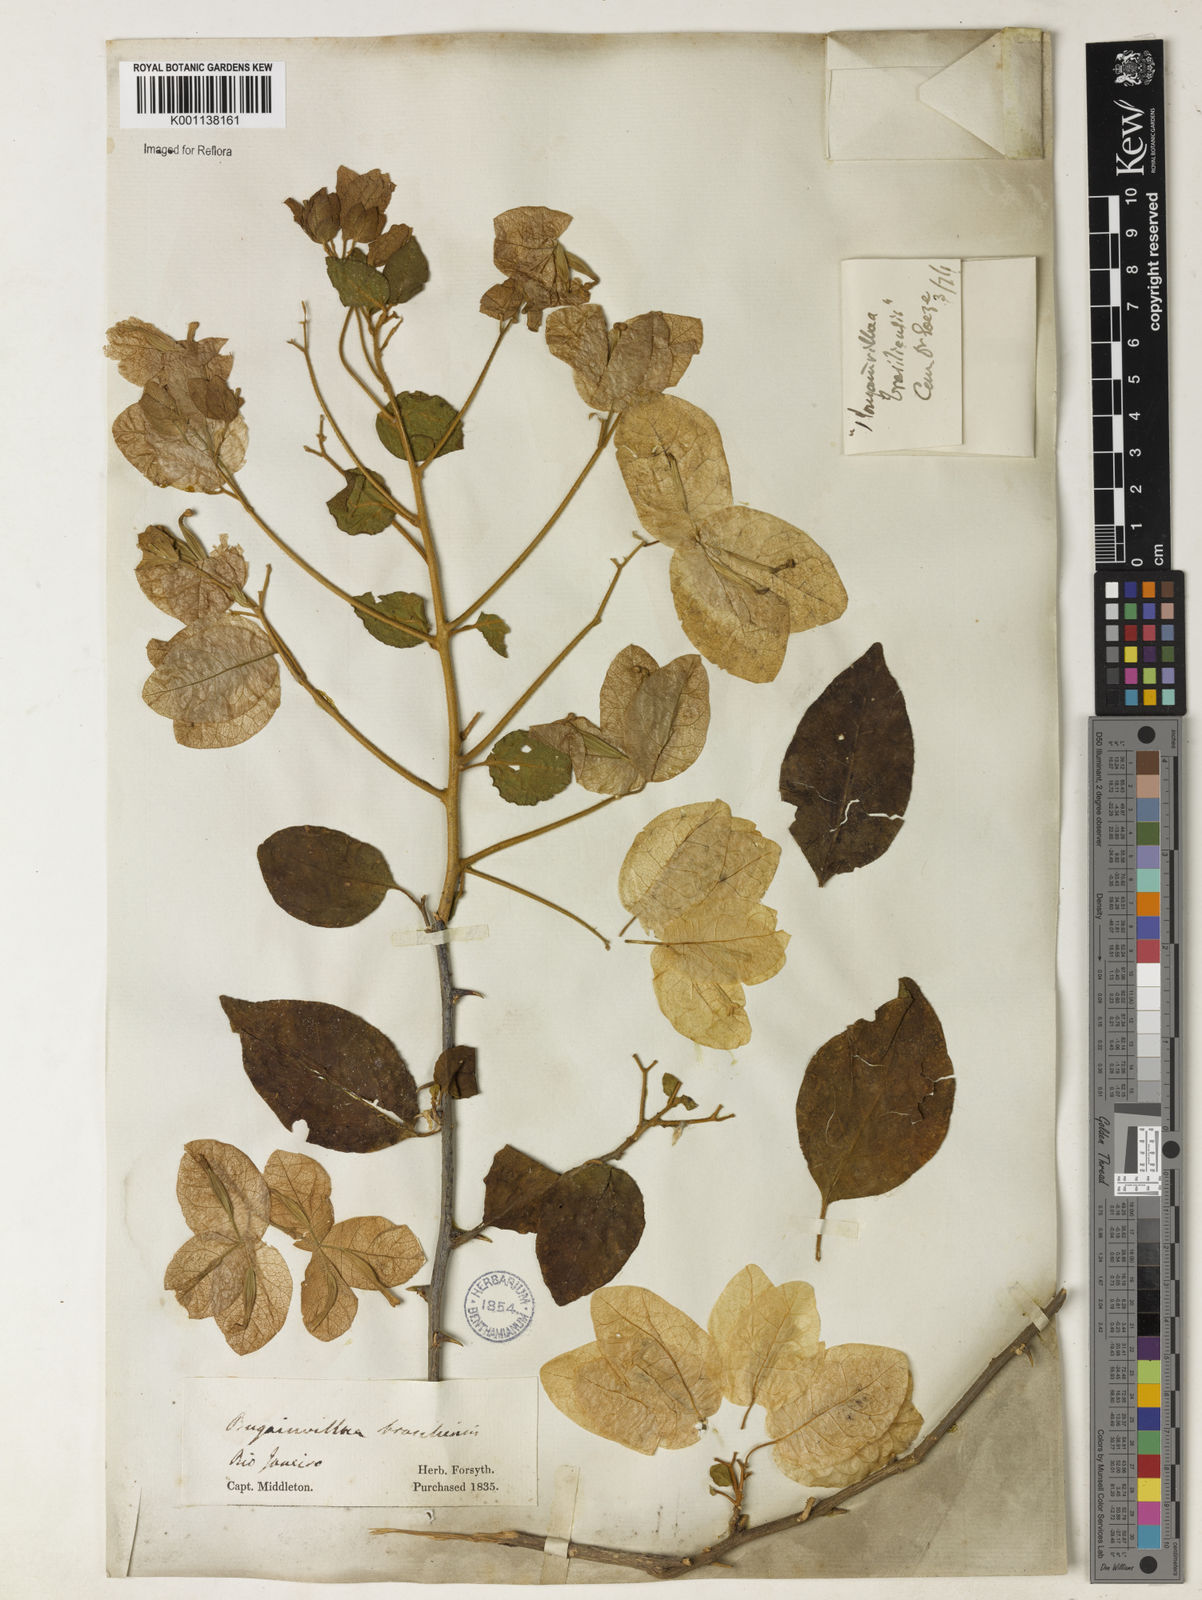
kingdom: Plantae
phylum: Tracheophyta
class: Magnoliopsida
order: Caryophyllales
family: Nyctaginaceae
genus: Bougainvillea
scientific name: Bougainvillea spectabilis
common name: Great bougainvillea
